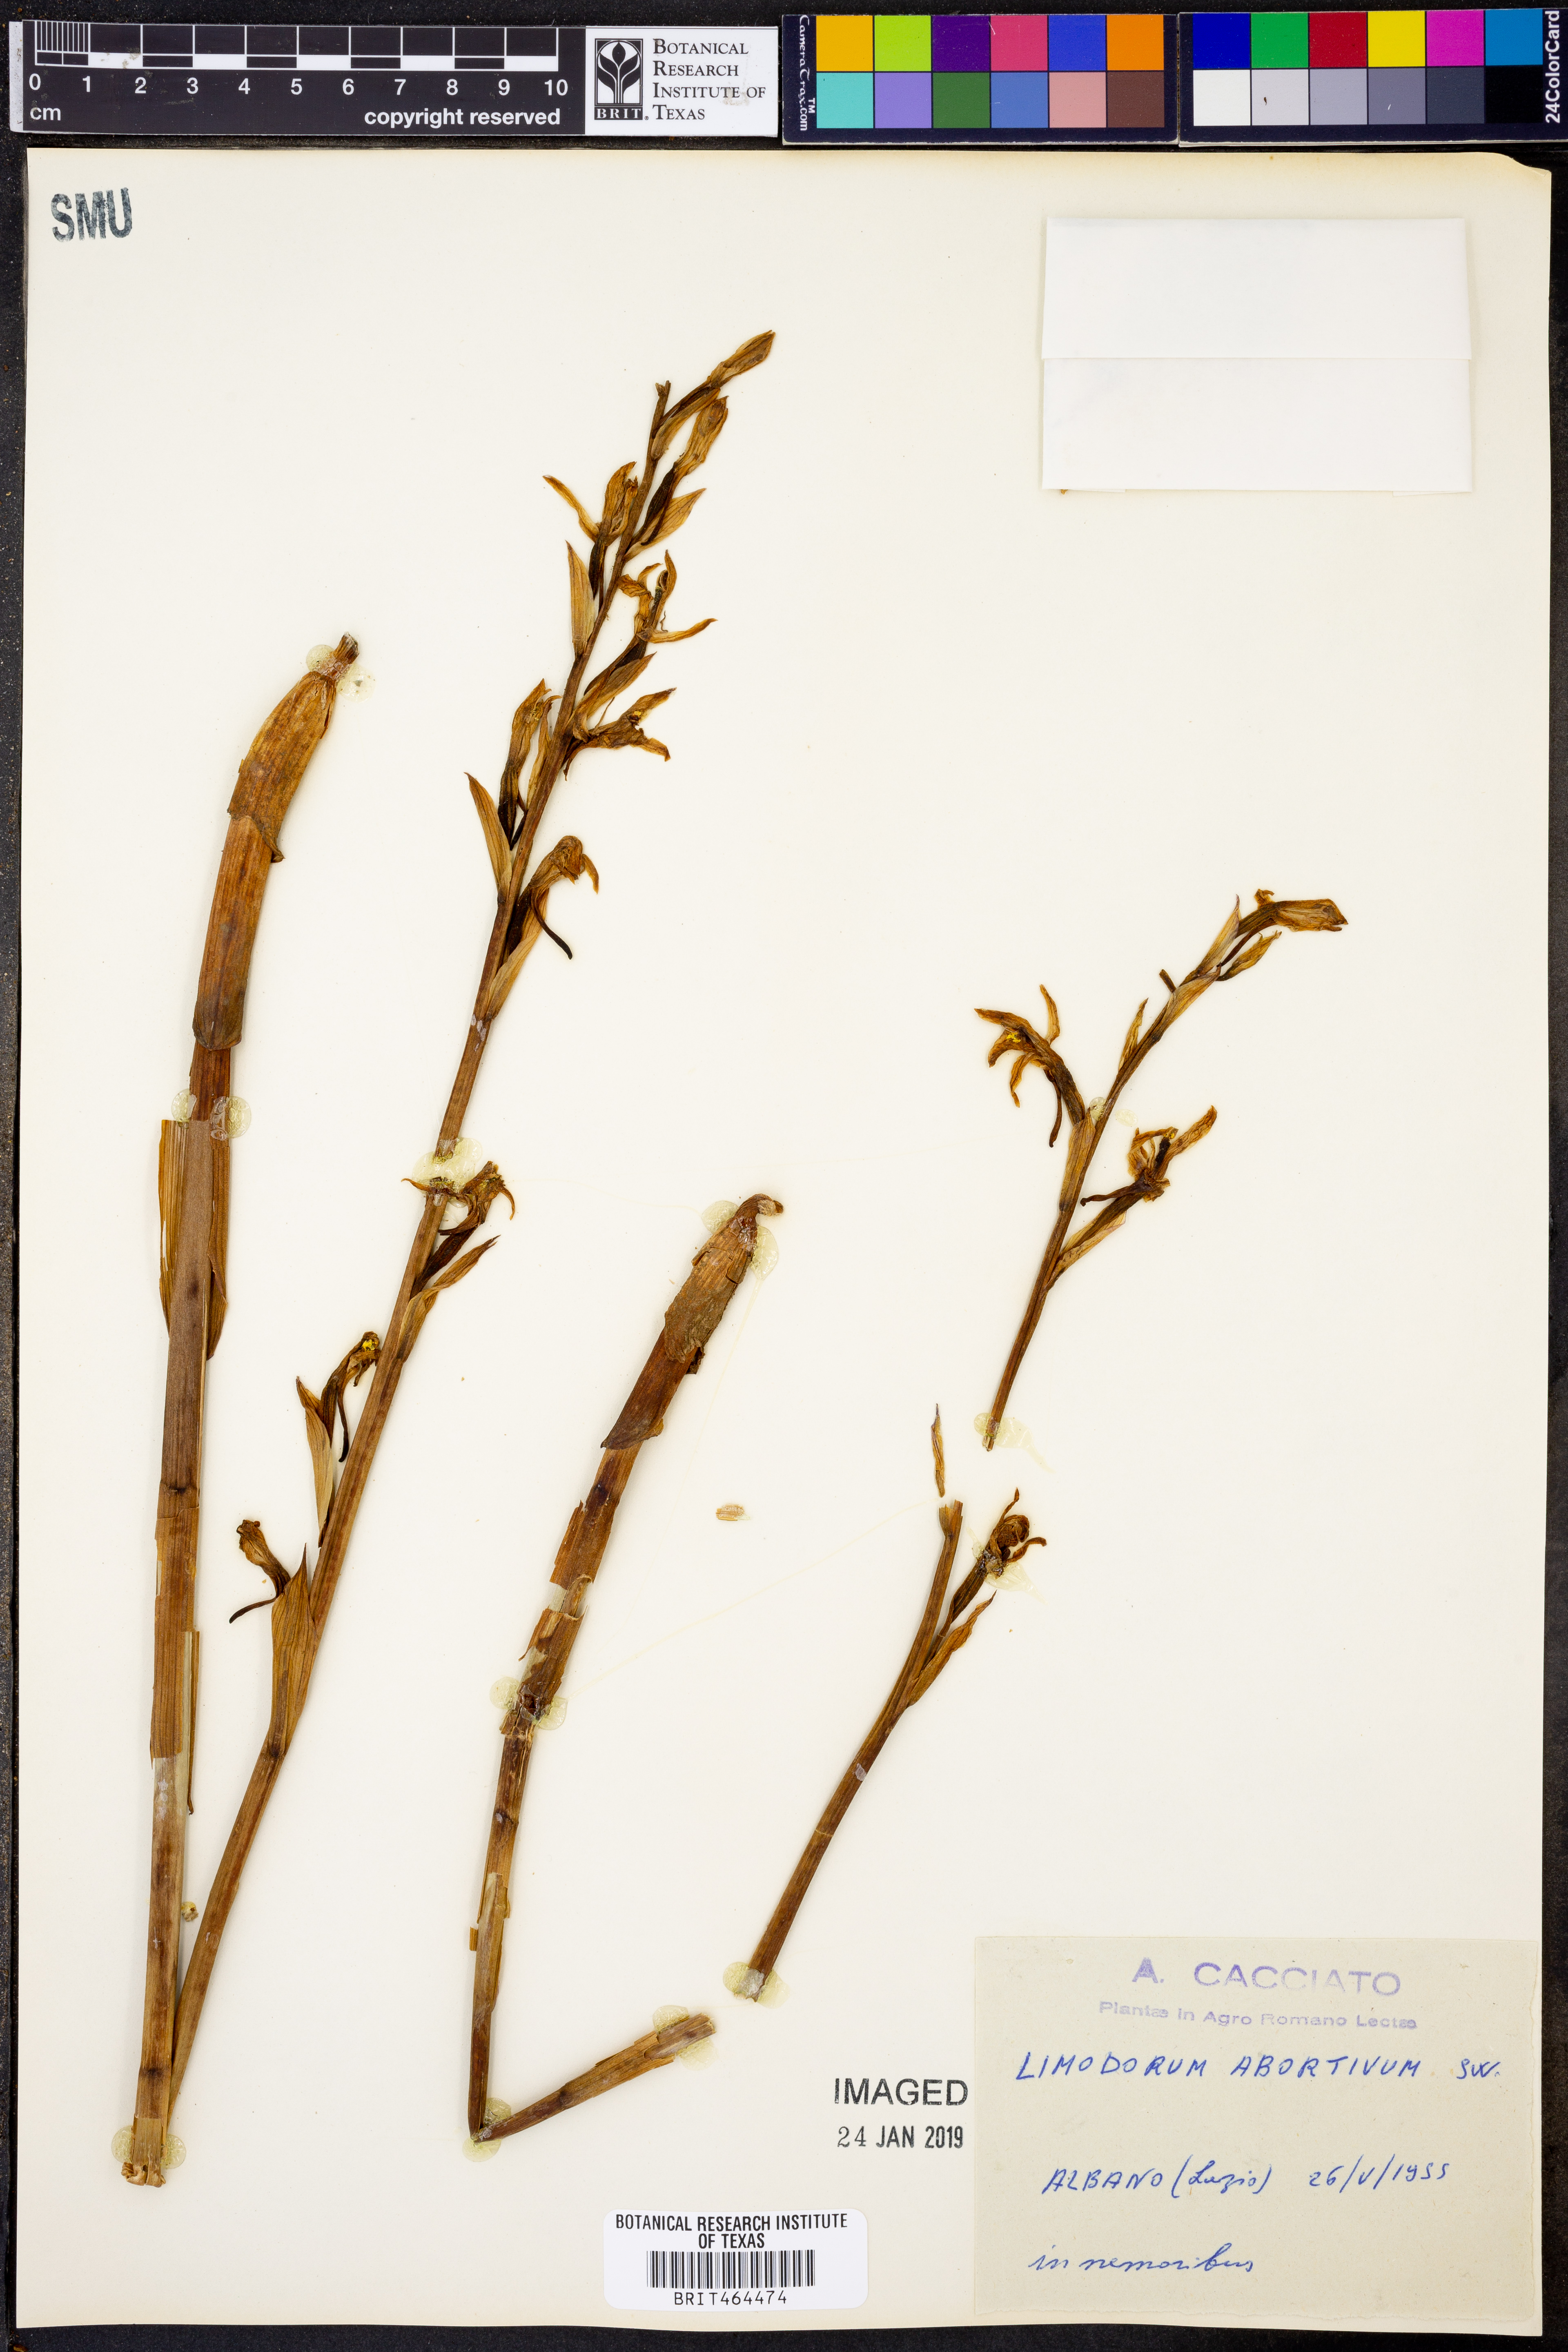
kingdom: Plantae
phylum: Tracheophyta
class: Liliopsida
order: Asparagales
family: Orchidaceae
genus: Limodorum
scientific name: Limodorum abortivum
